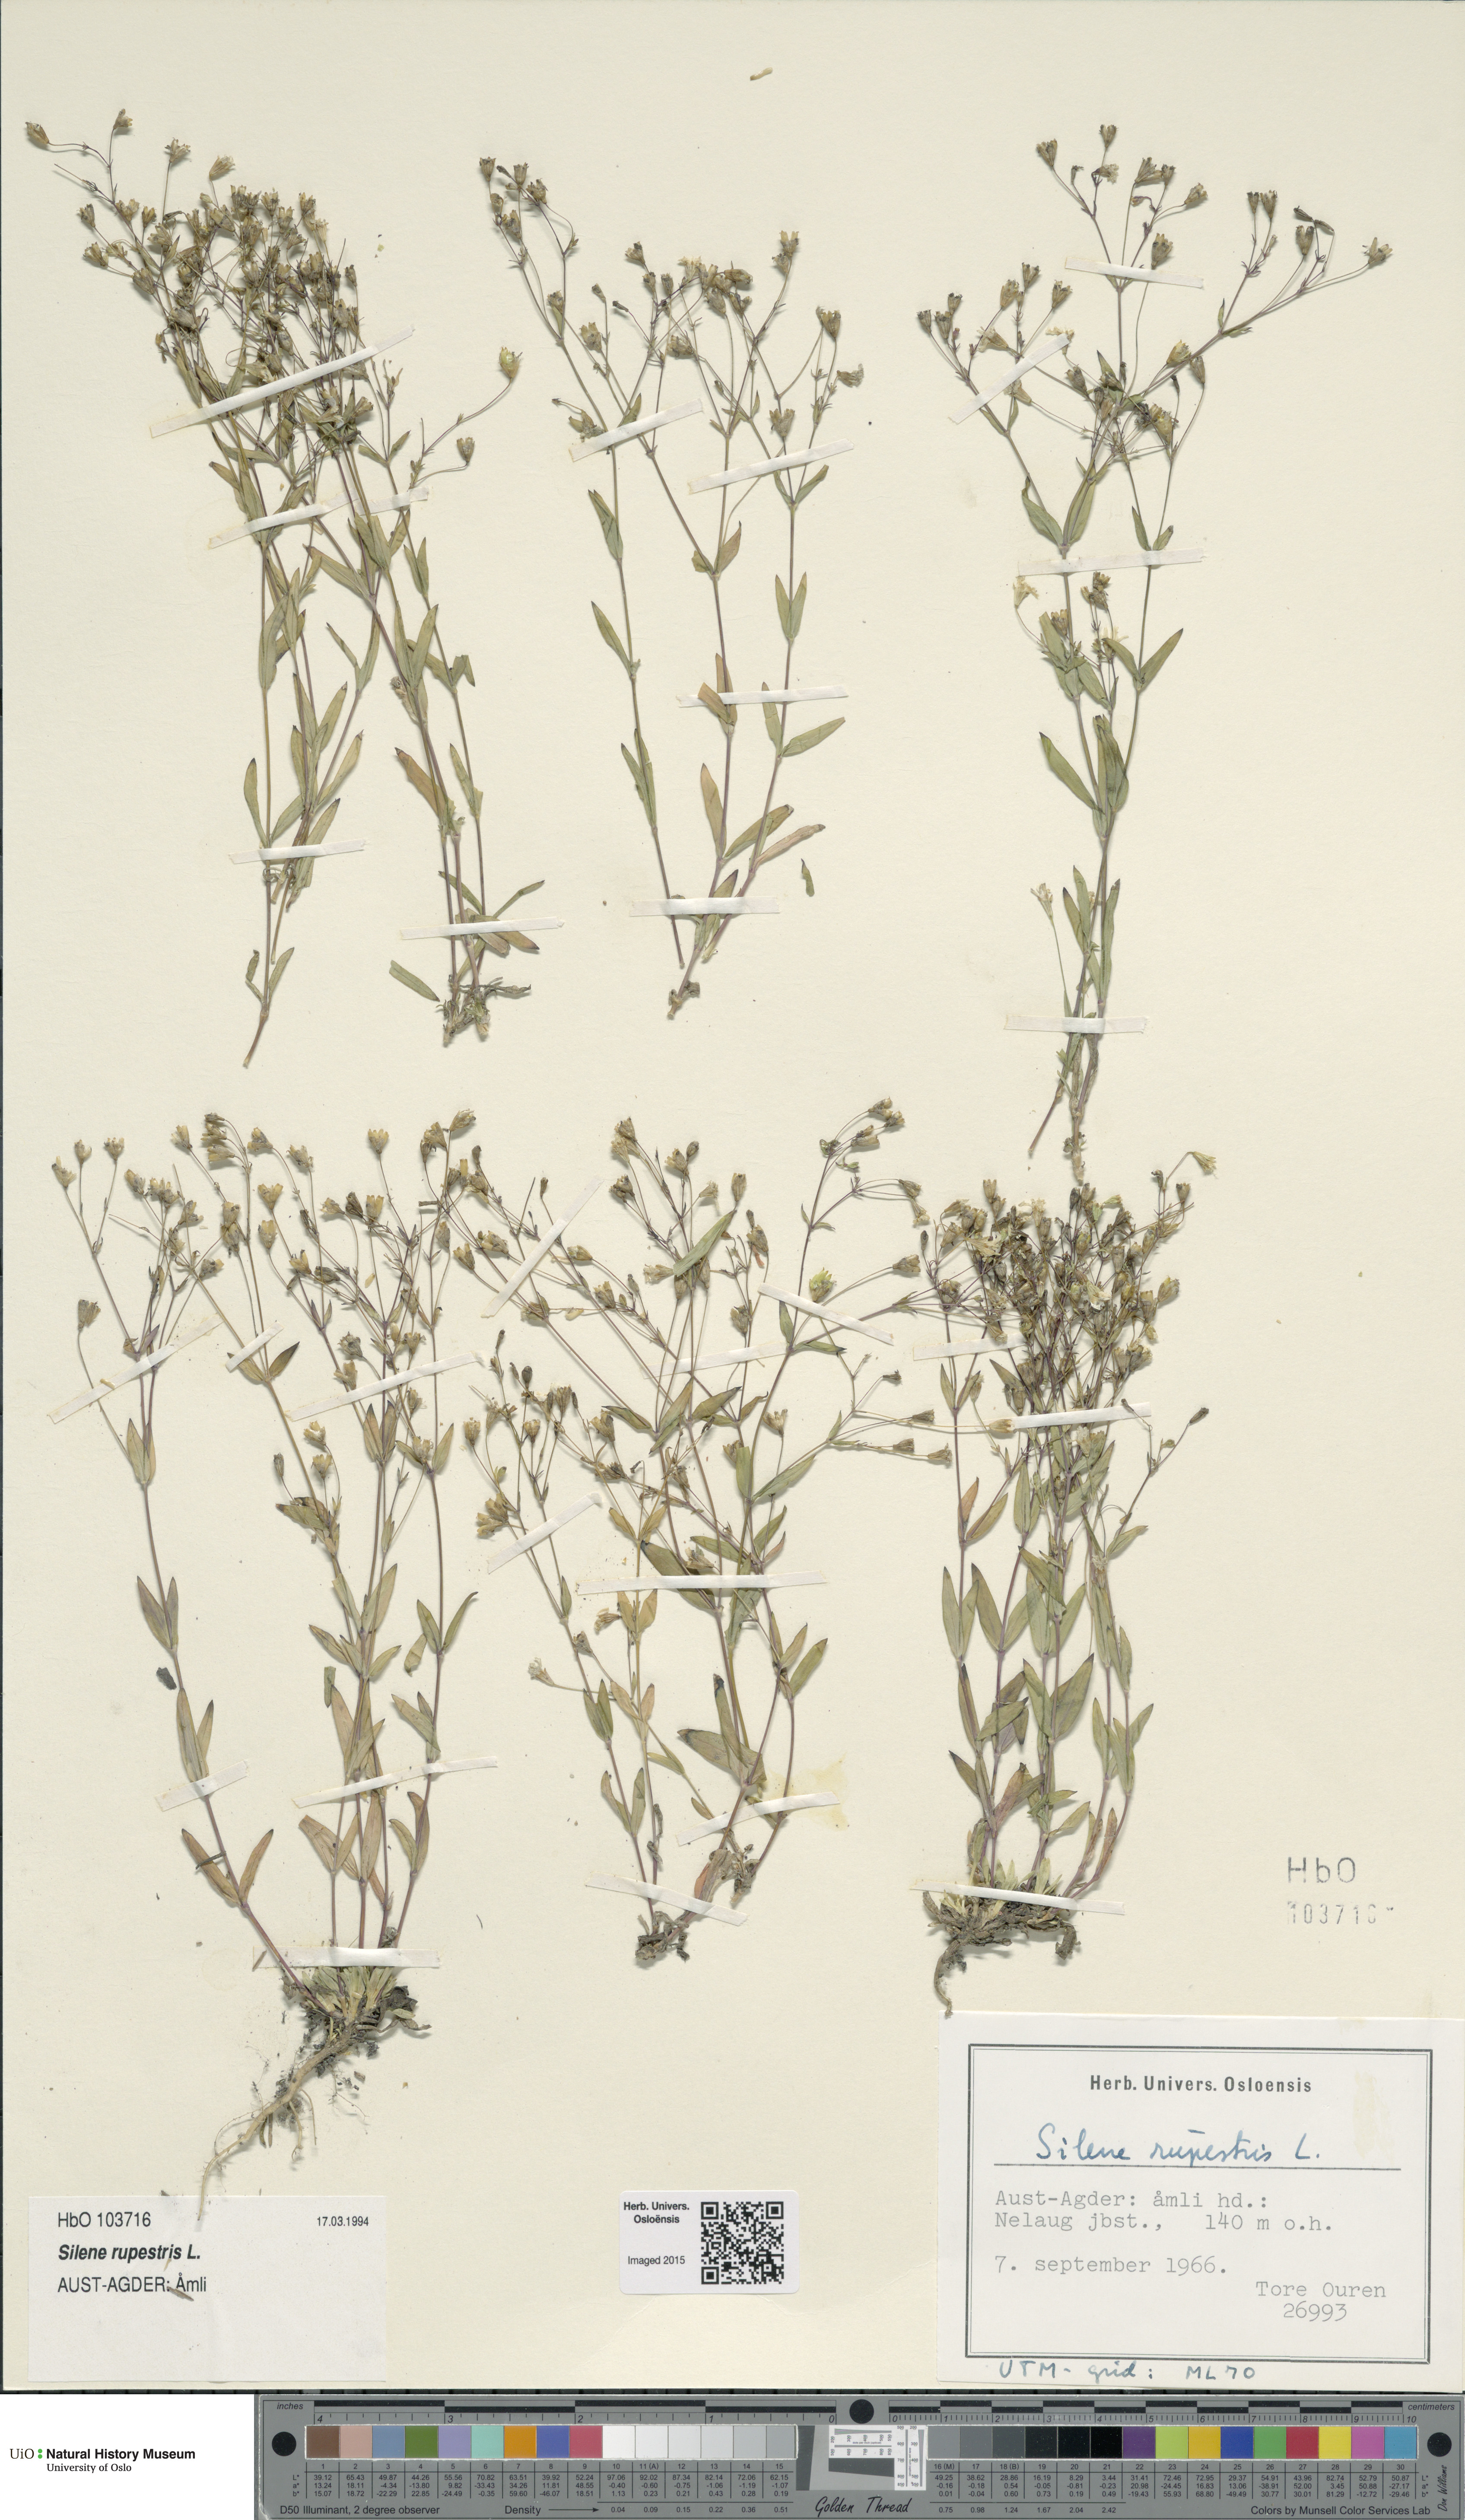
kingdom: Plantae
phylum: Tracheophyta
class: Magnoliopsida
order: Caryophyllales
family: Caryophyllaceae
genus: Atocion
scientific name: Atocion rupestre
